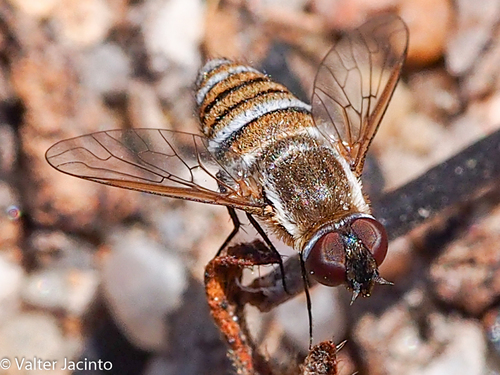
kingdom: Animalia
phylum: Arthropoda
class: Insecta
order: Diptera
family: Bombyliidae
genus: Exhyalanthrax
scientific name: Exhyalanthrax muscarius
